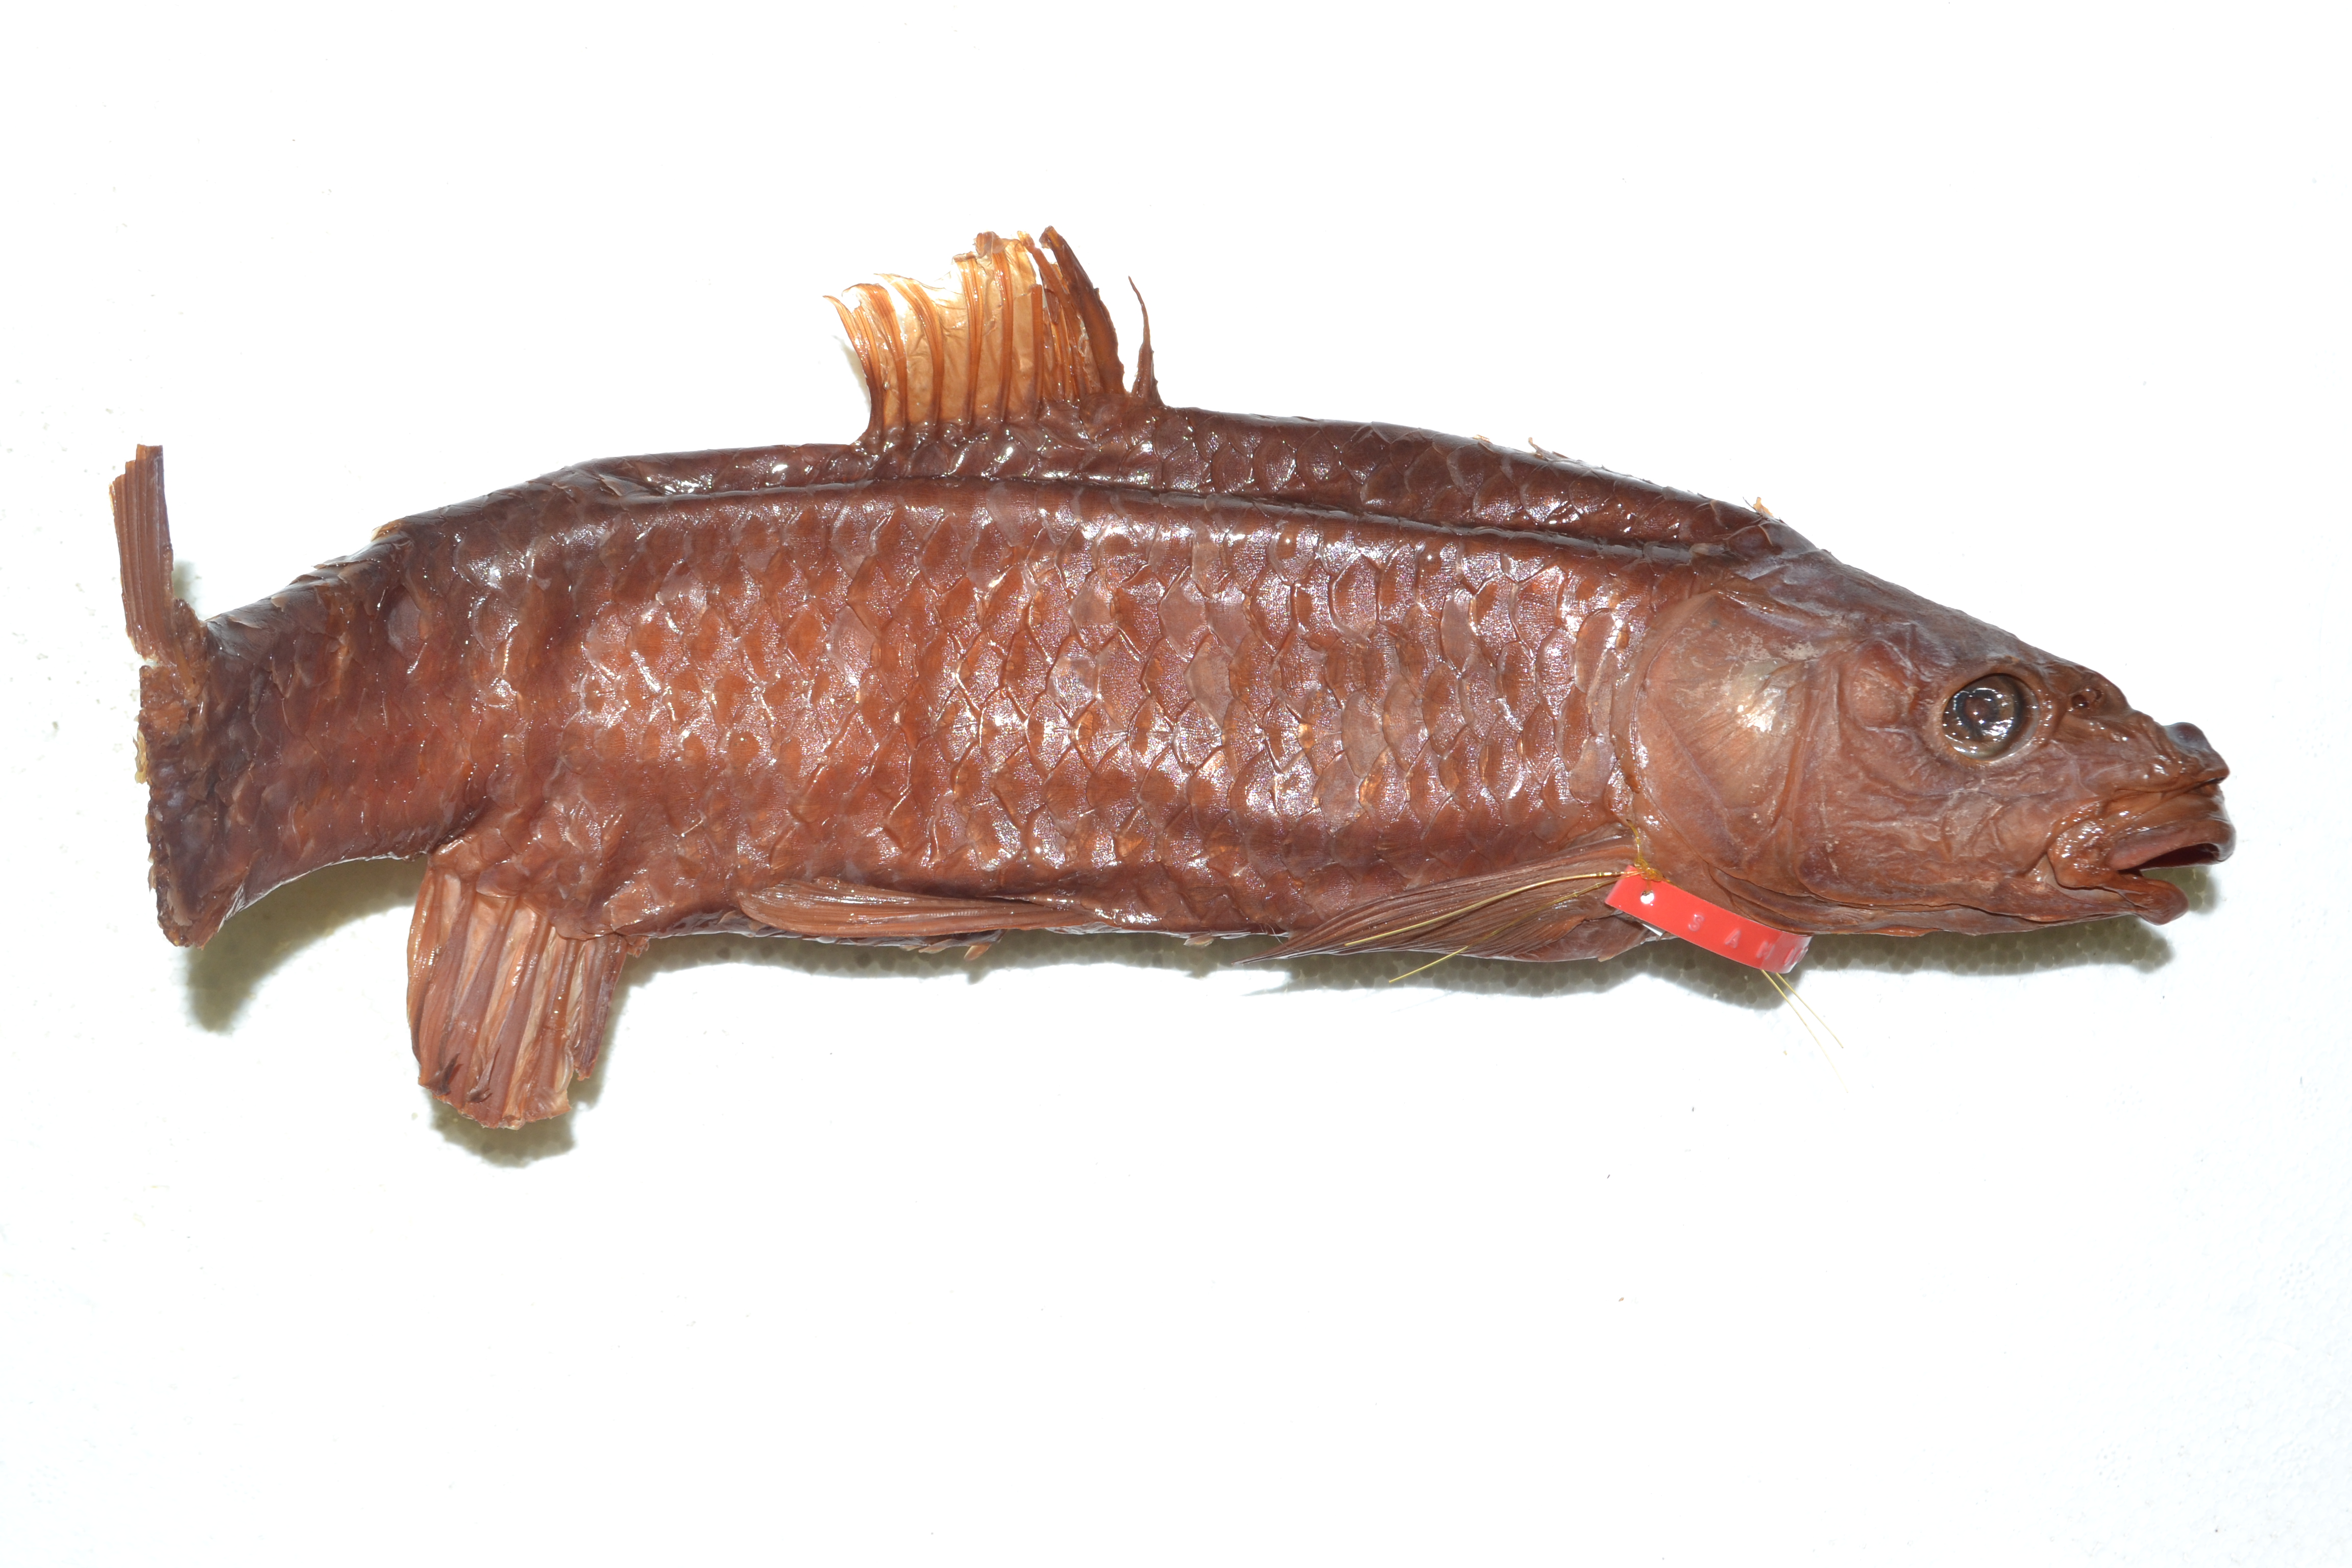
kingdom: Animalia
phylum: Chordata
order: Cypriniformes
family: Cyprinidae
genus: Labeobarbus
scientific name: Labeobarbus natalensis
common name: Scaly
